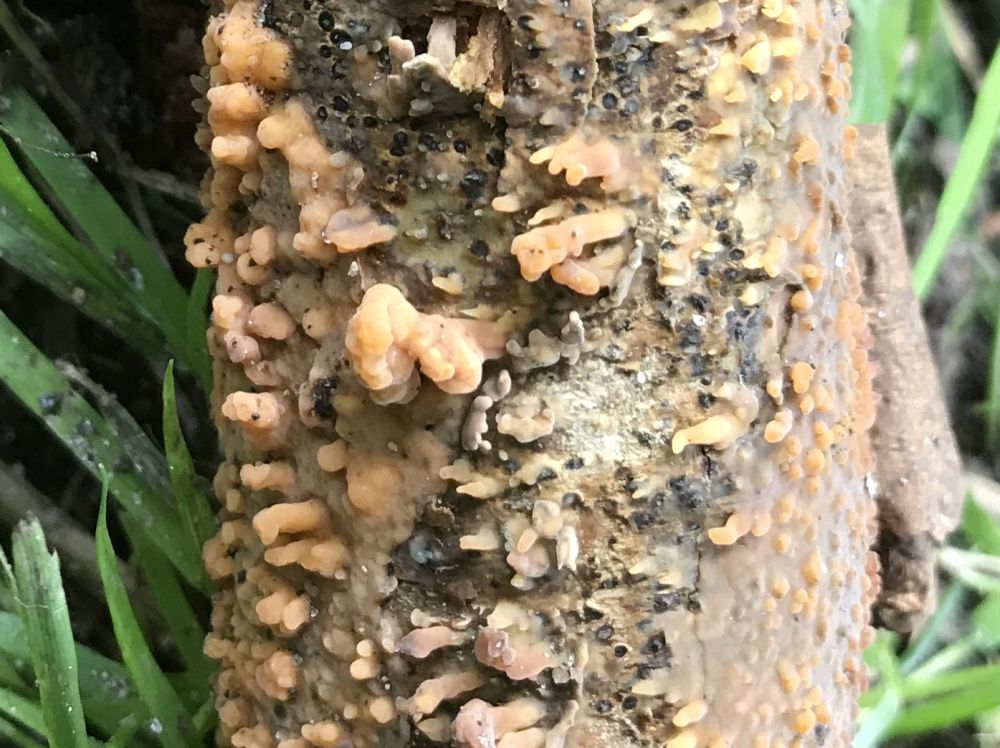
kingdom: Fungi
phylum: Basidiomycota
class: Agaricomycetes
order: Russulales
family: Peniophoraceae
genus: Peniophora
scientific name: Peniophora laeta
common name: tandet voksskind
